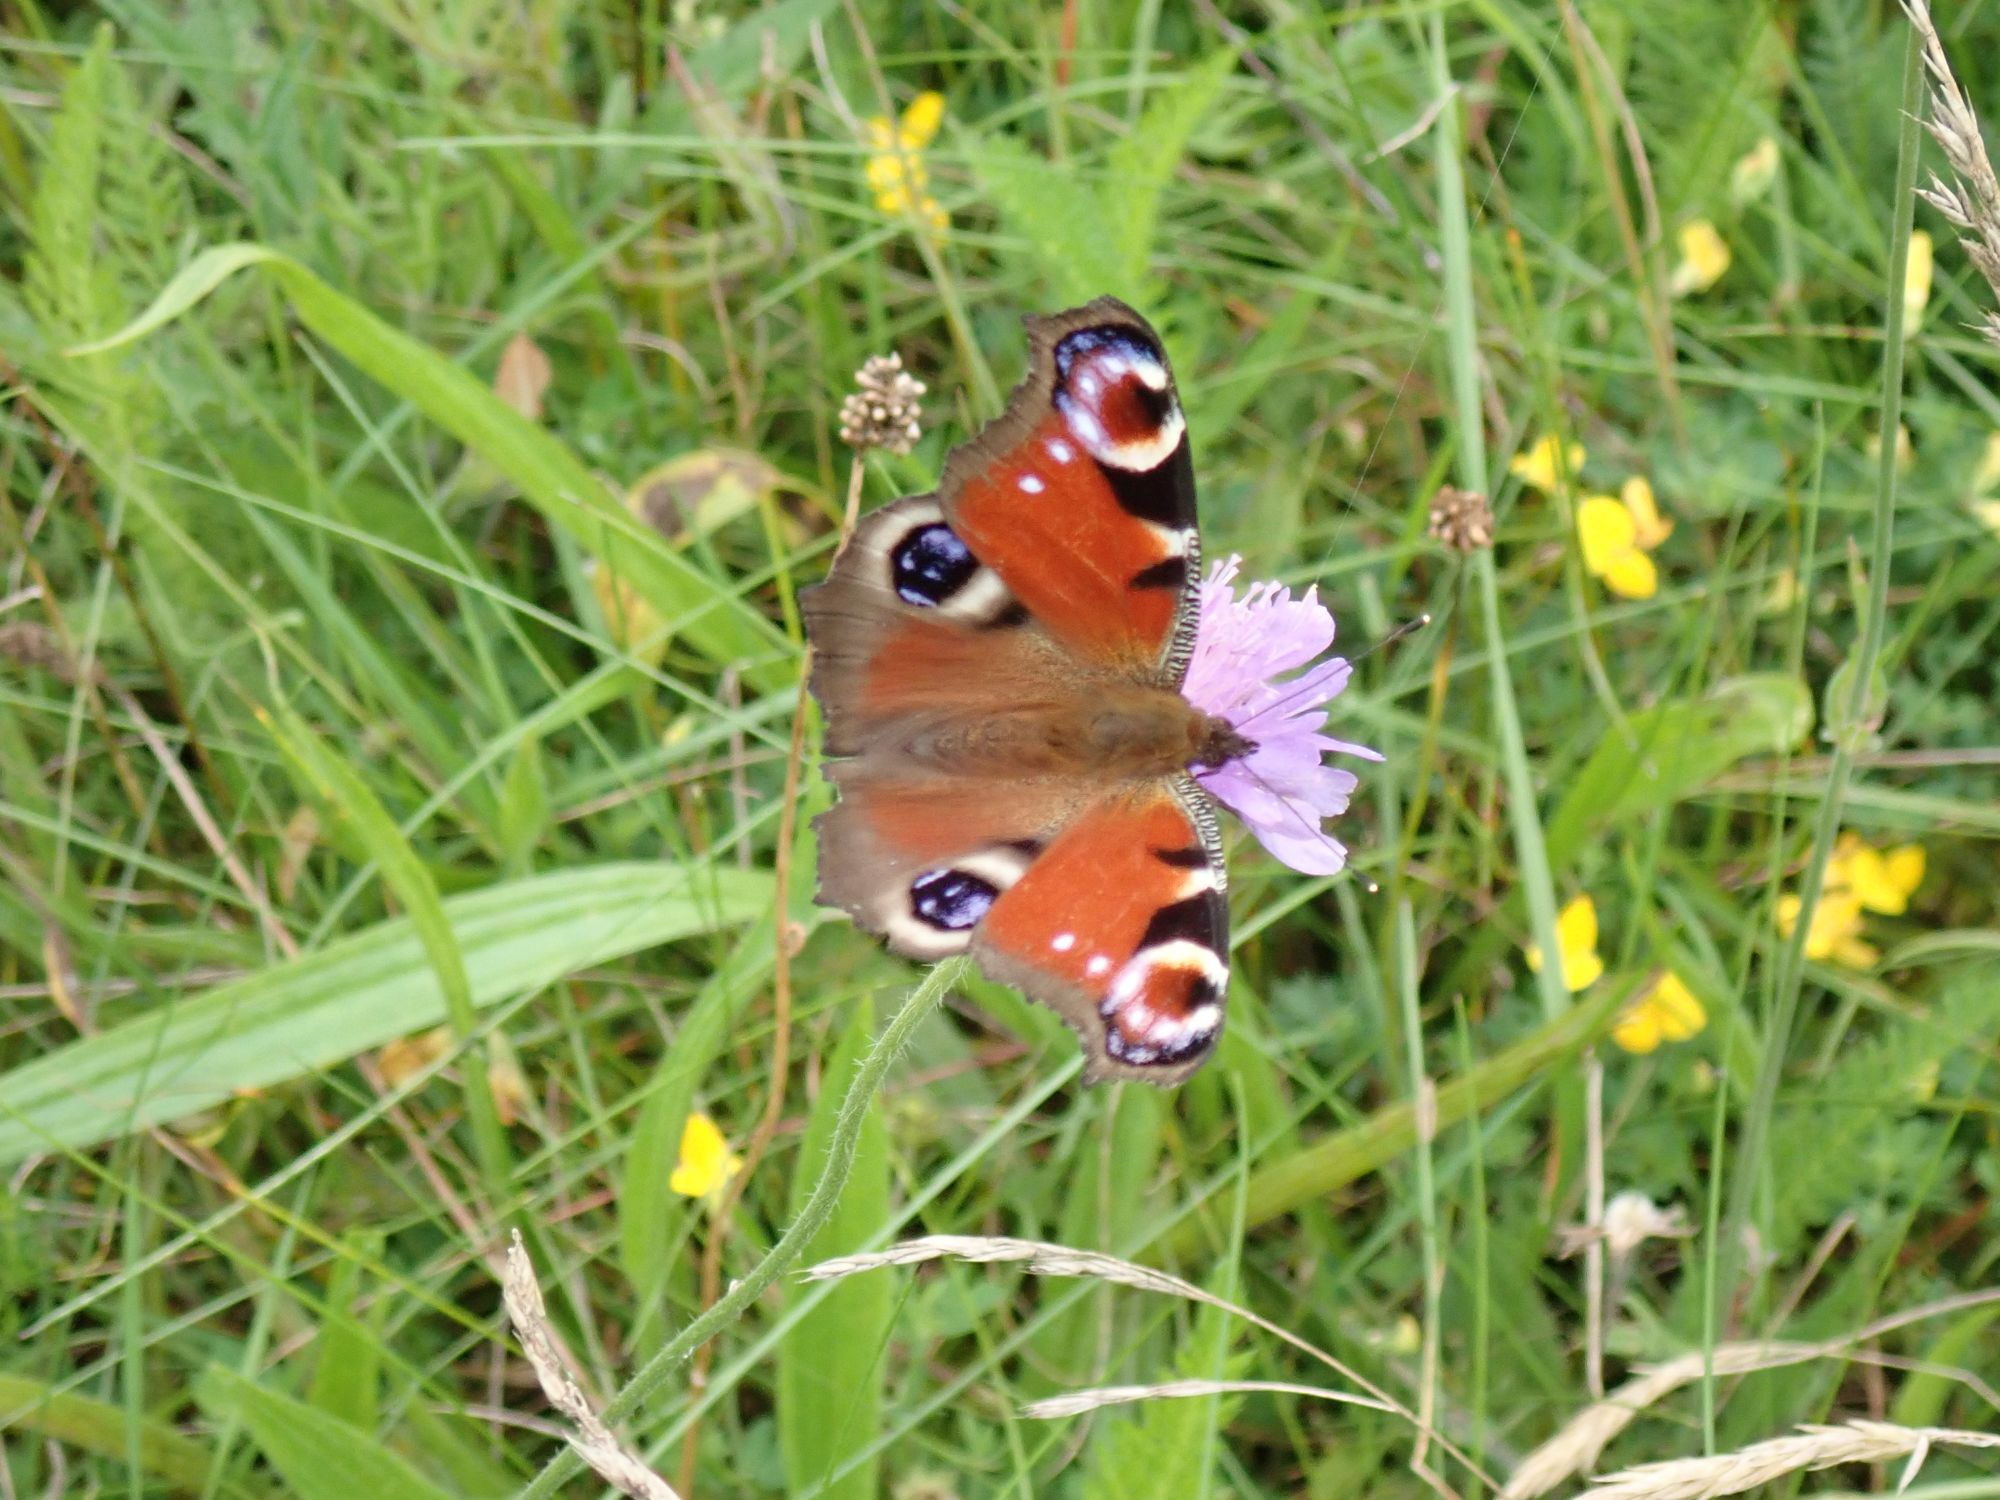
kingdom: Animalia
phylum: Arthropoda
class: Insecta
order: Lepidoptera
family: Nymphalidae
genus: Aglais
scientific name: Aglais io
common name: Dagpåfugleøje
